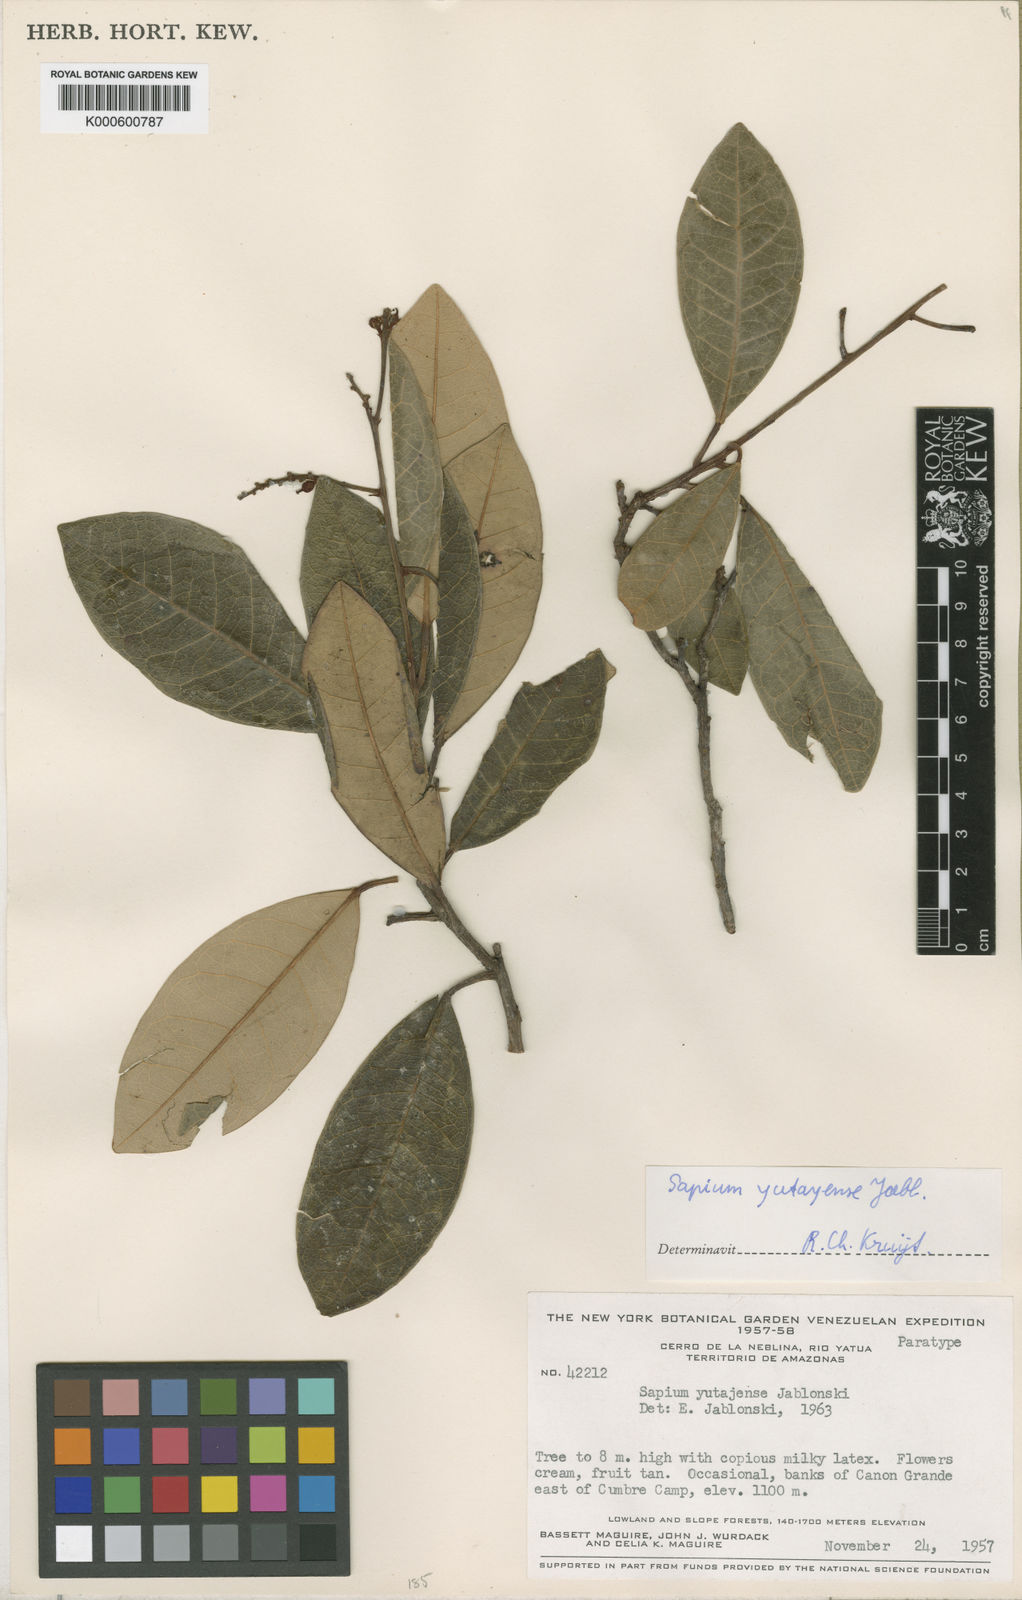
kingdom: Plantae
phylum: Tracheophyta
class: Magnoliopsida
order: Malpighiales
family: Euphorbiaceae
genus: Dendrothrix
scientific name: Dendrothrix yutajensis
